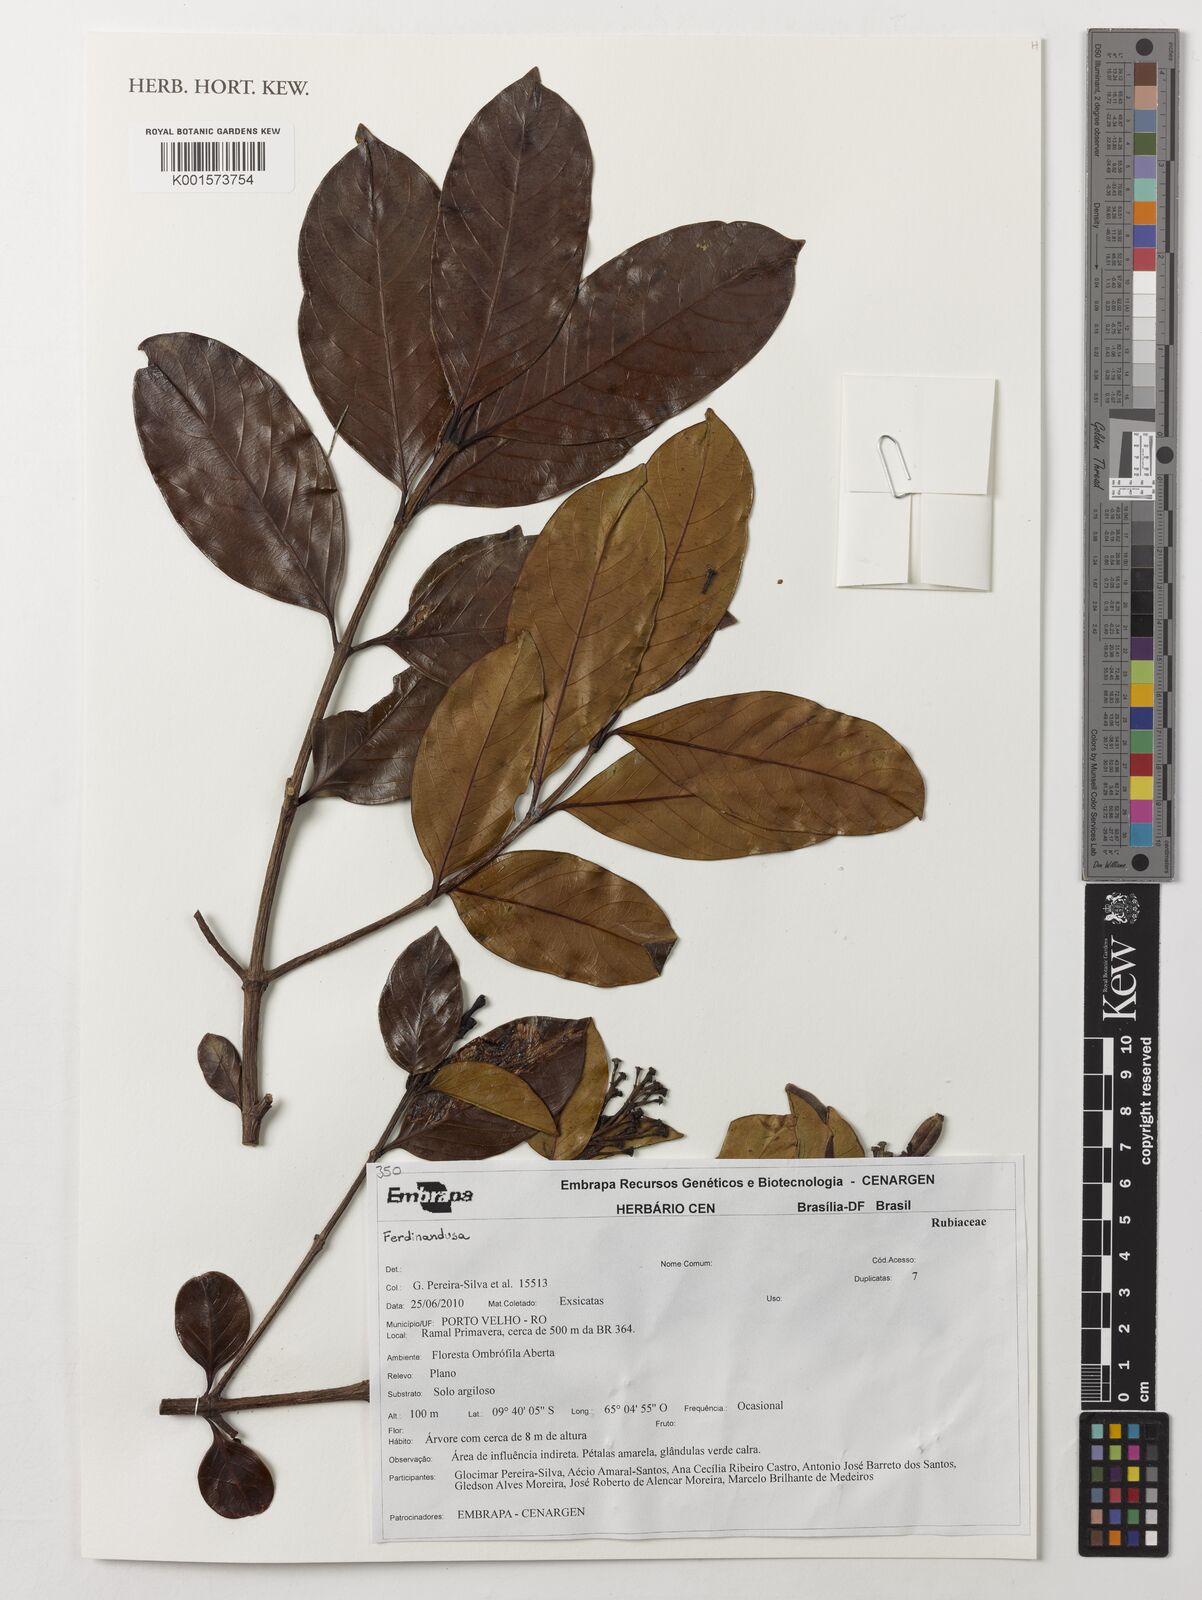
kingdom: Plantae
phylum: Tracheophyta
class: Magnoliopsida
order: Gentianales
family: Rubiaceae
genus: Ferdinandusa
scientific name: Ferdinandusa
